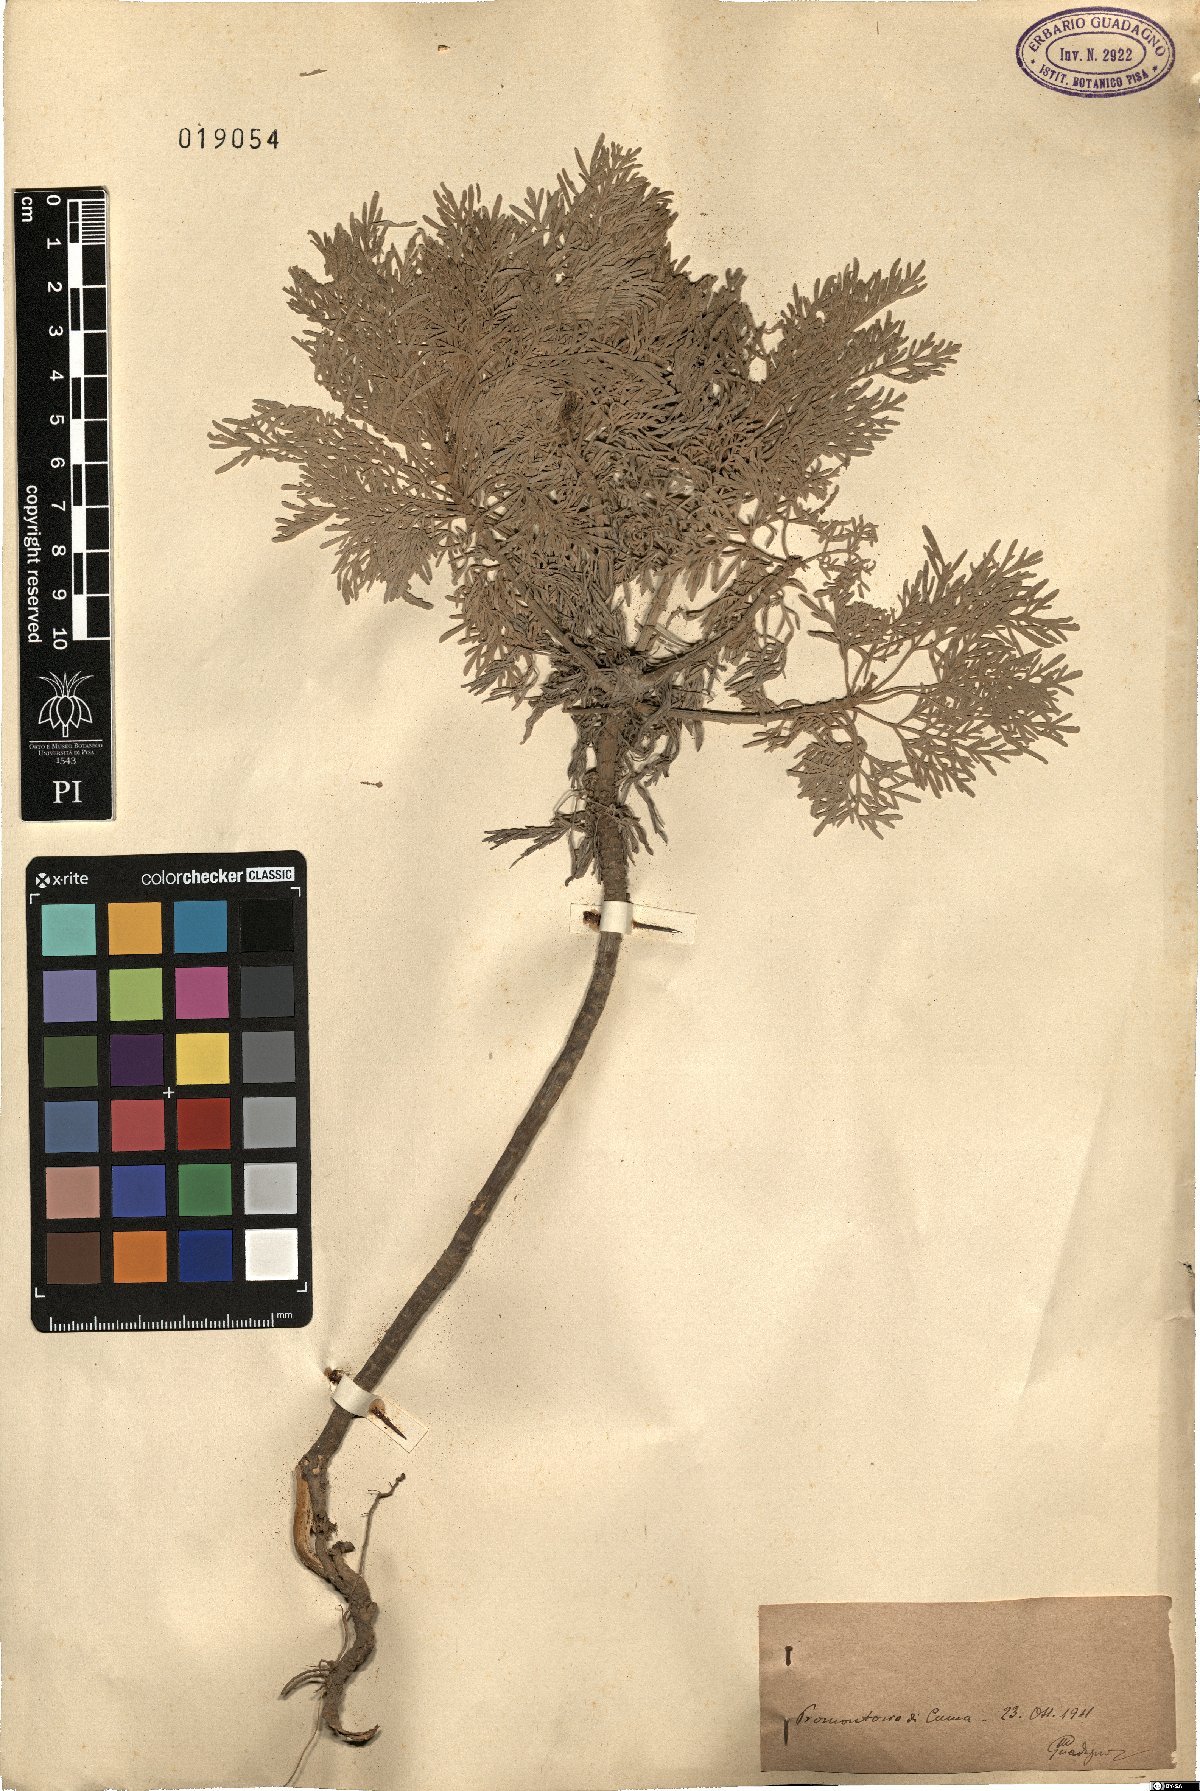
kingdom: Plantae
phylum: Tracheophyta
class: Magnoliopsida
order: Asterales
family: Asteraceae
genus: Artemisia
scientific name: Artemisia
